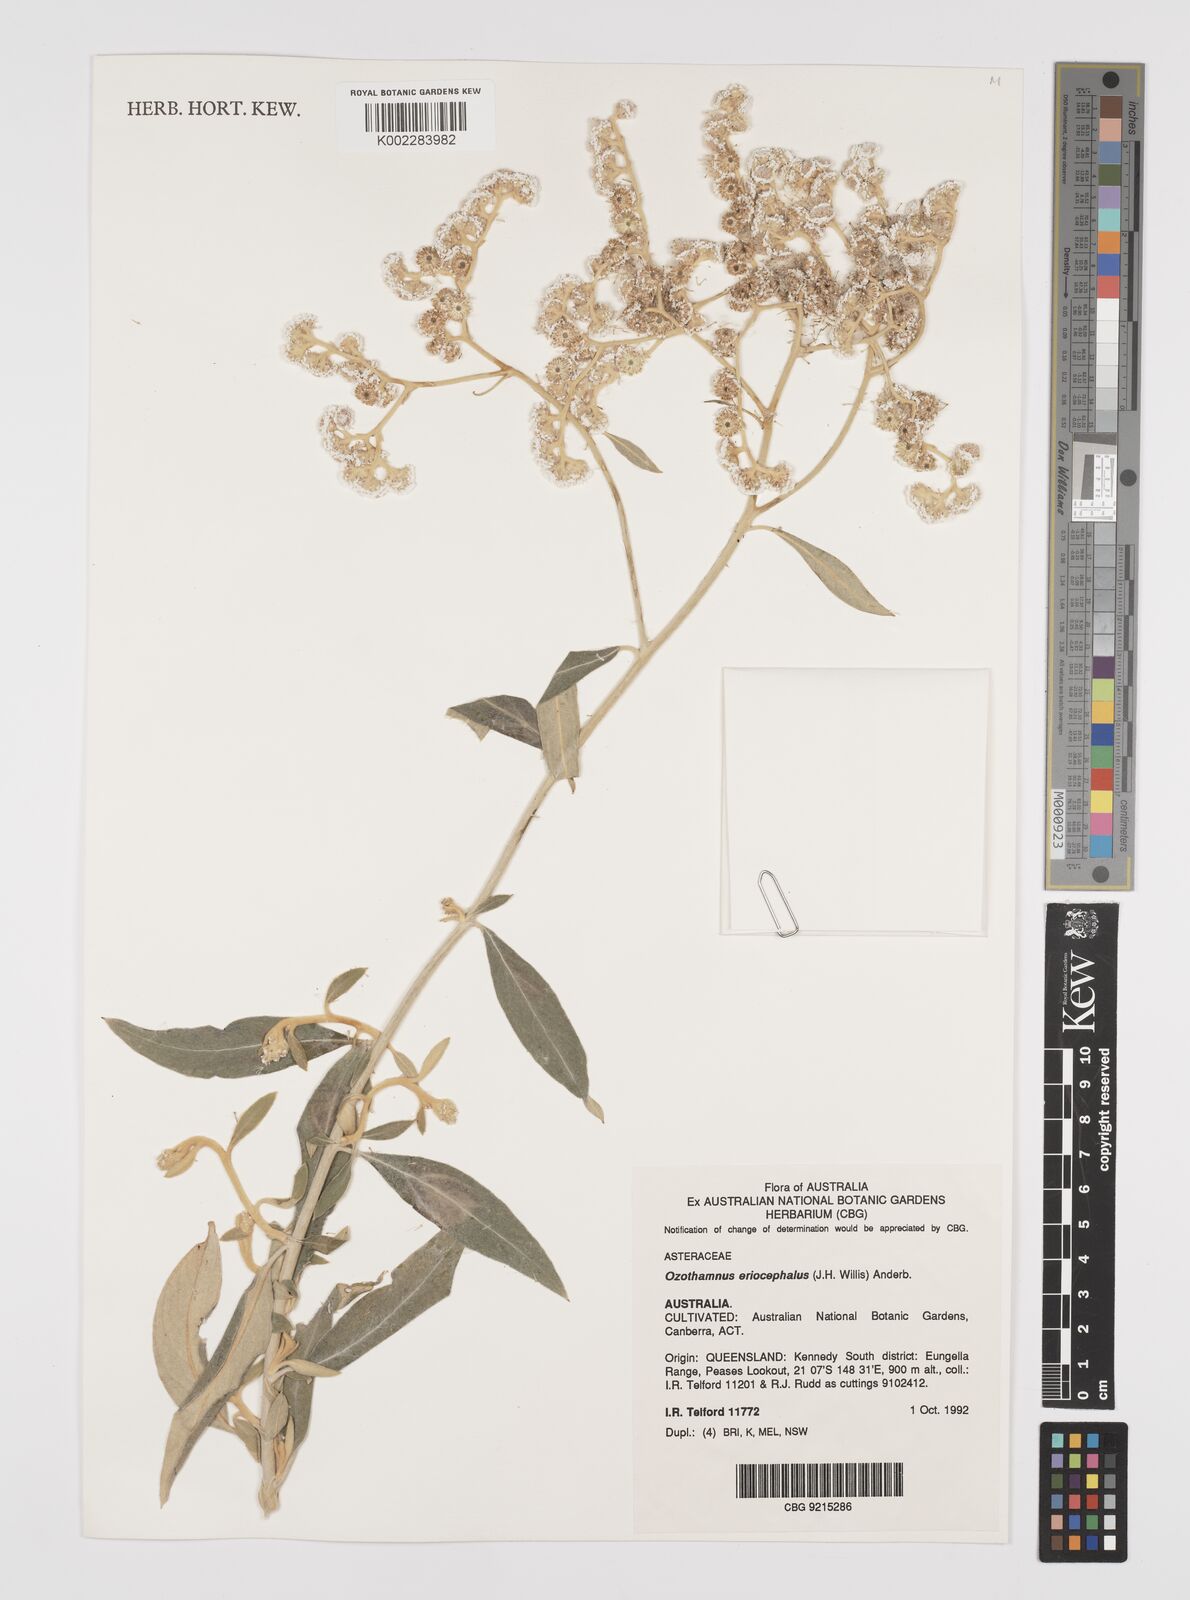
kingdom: Plantae
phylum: Tracheophyta
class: Magnoliopsida
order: Asterales
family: Asteraceae
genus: Ozothamnus
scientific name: Ozothamnus eriocephalus
